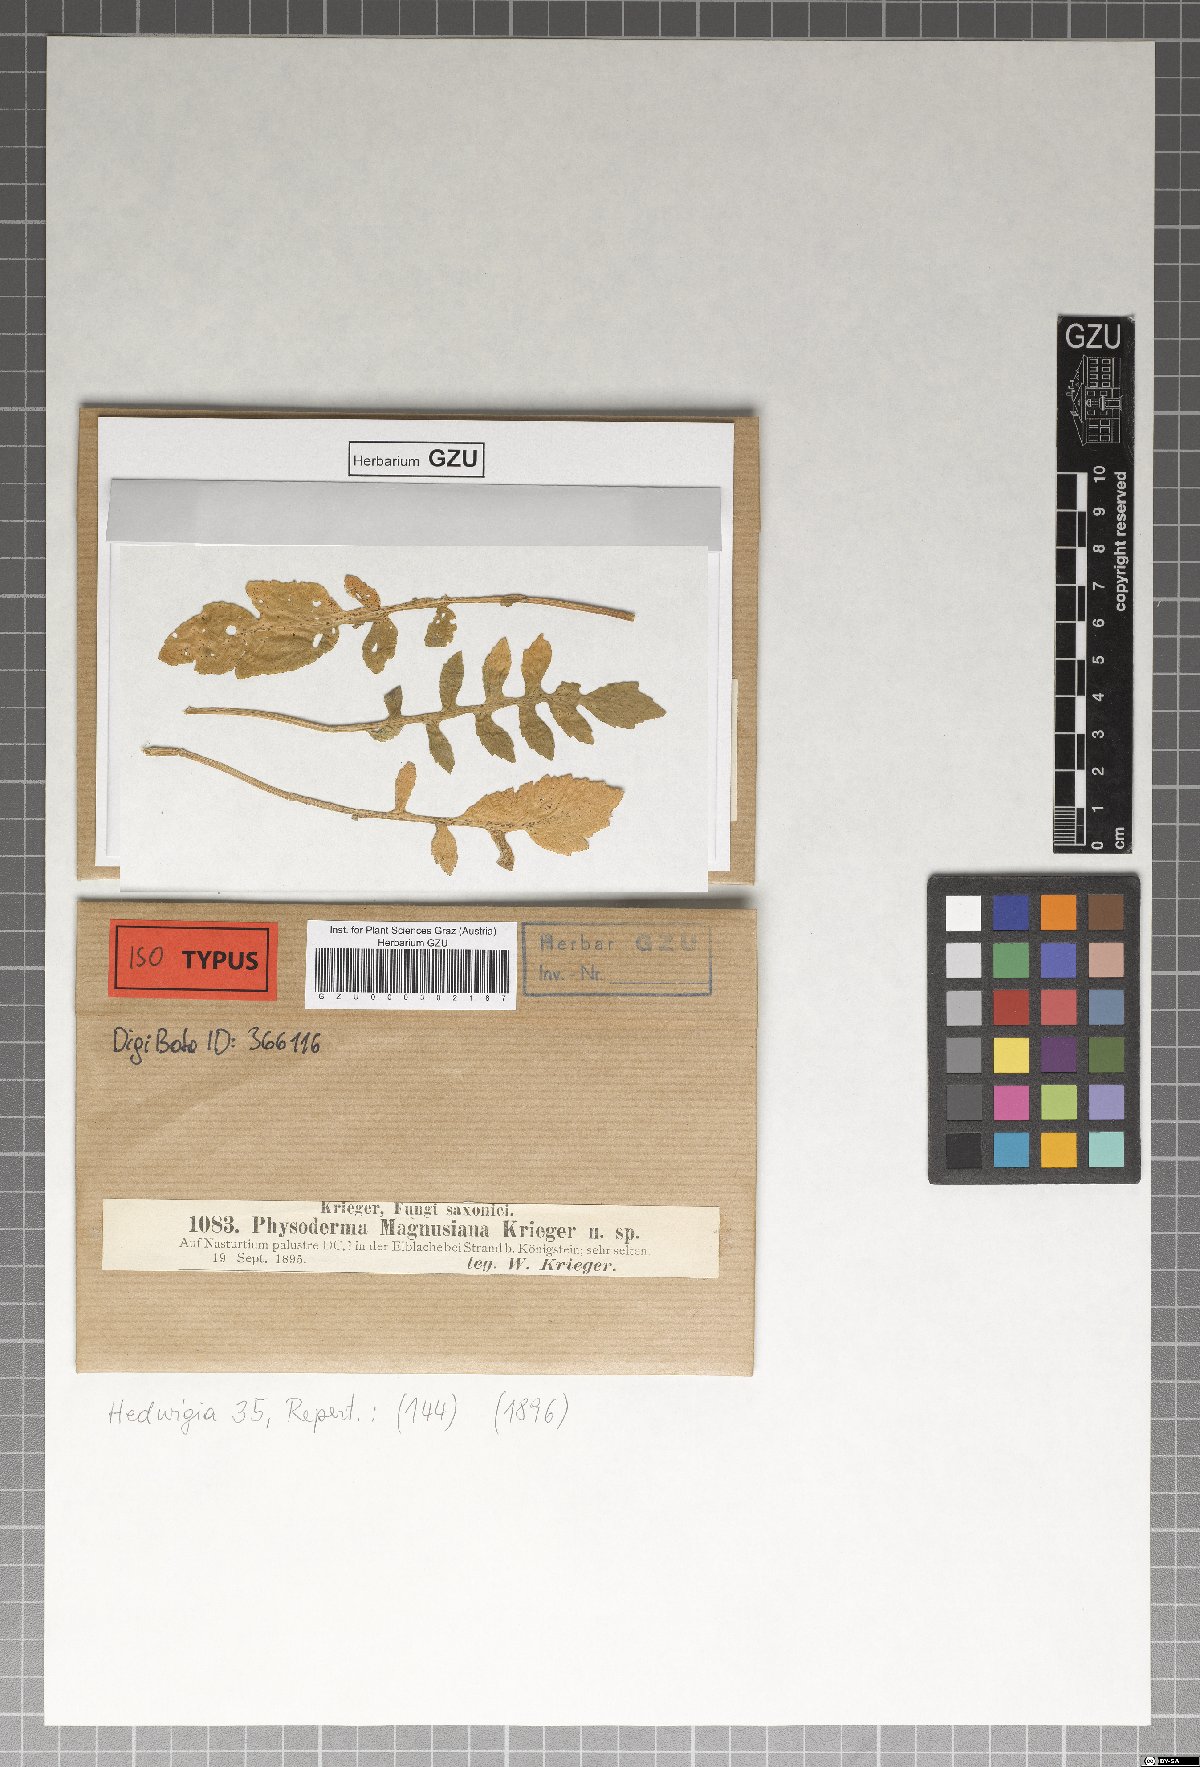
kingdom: Fungi
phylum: Blastocladiomycota
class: Blastocladiomycetes
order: Physodermatales
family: Physodermataceae
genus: Physoderma
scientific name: Physoderma
